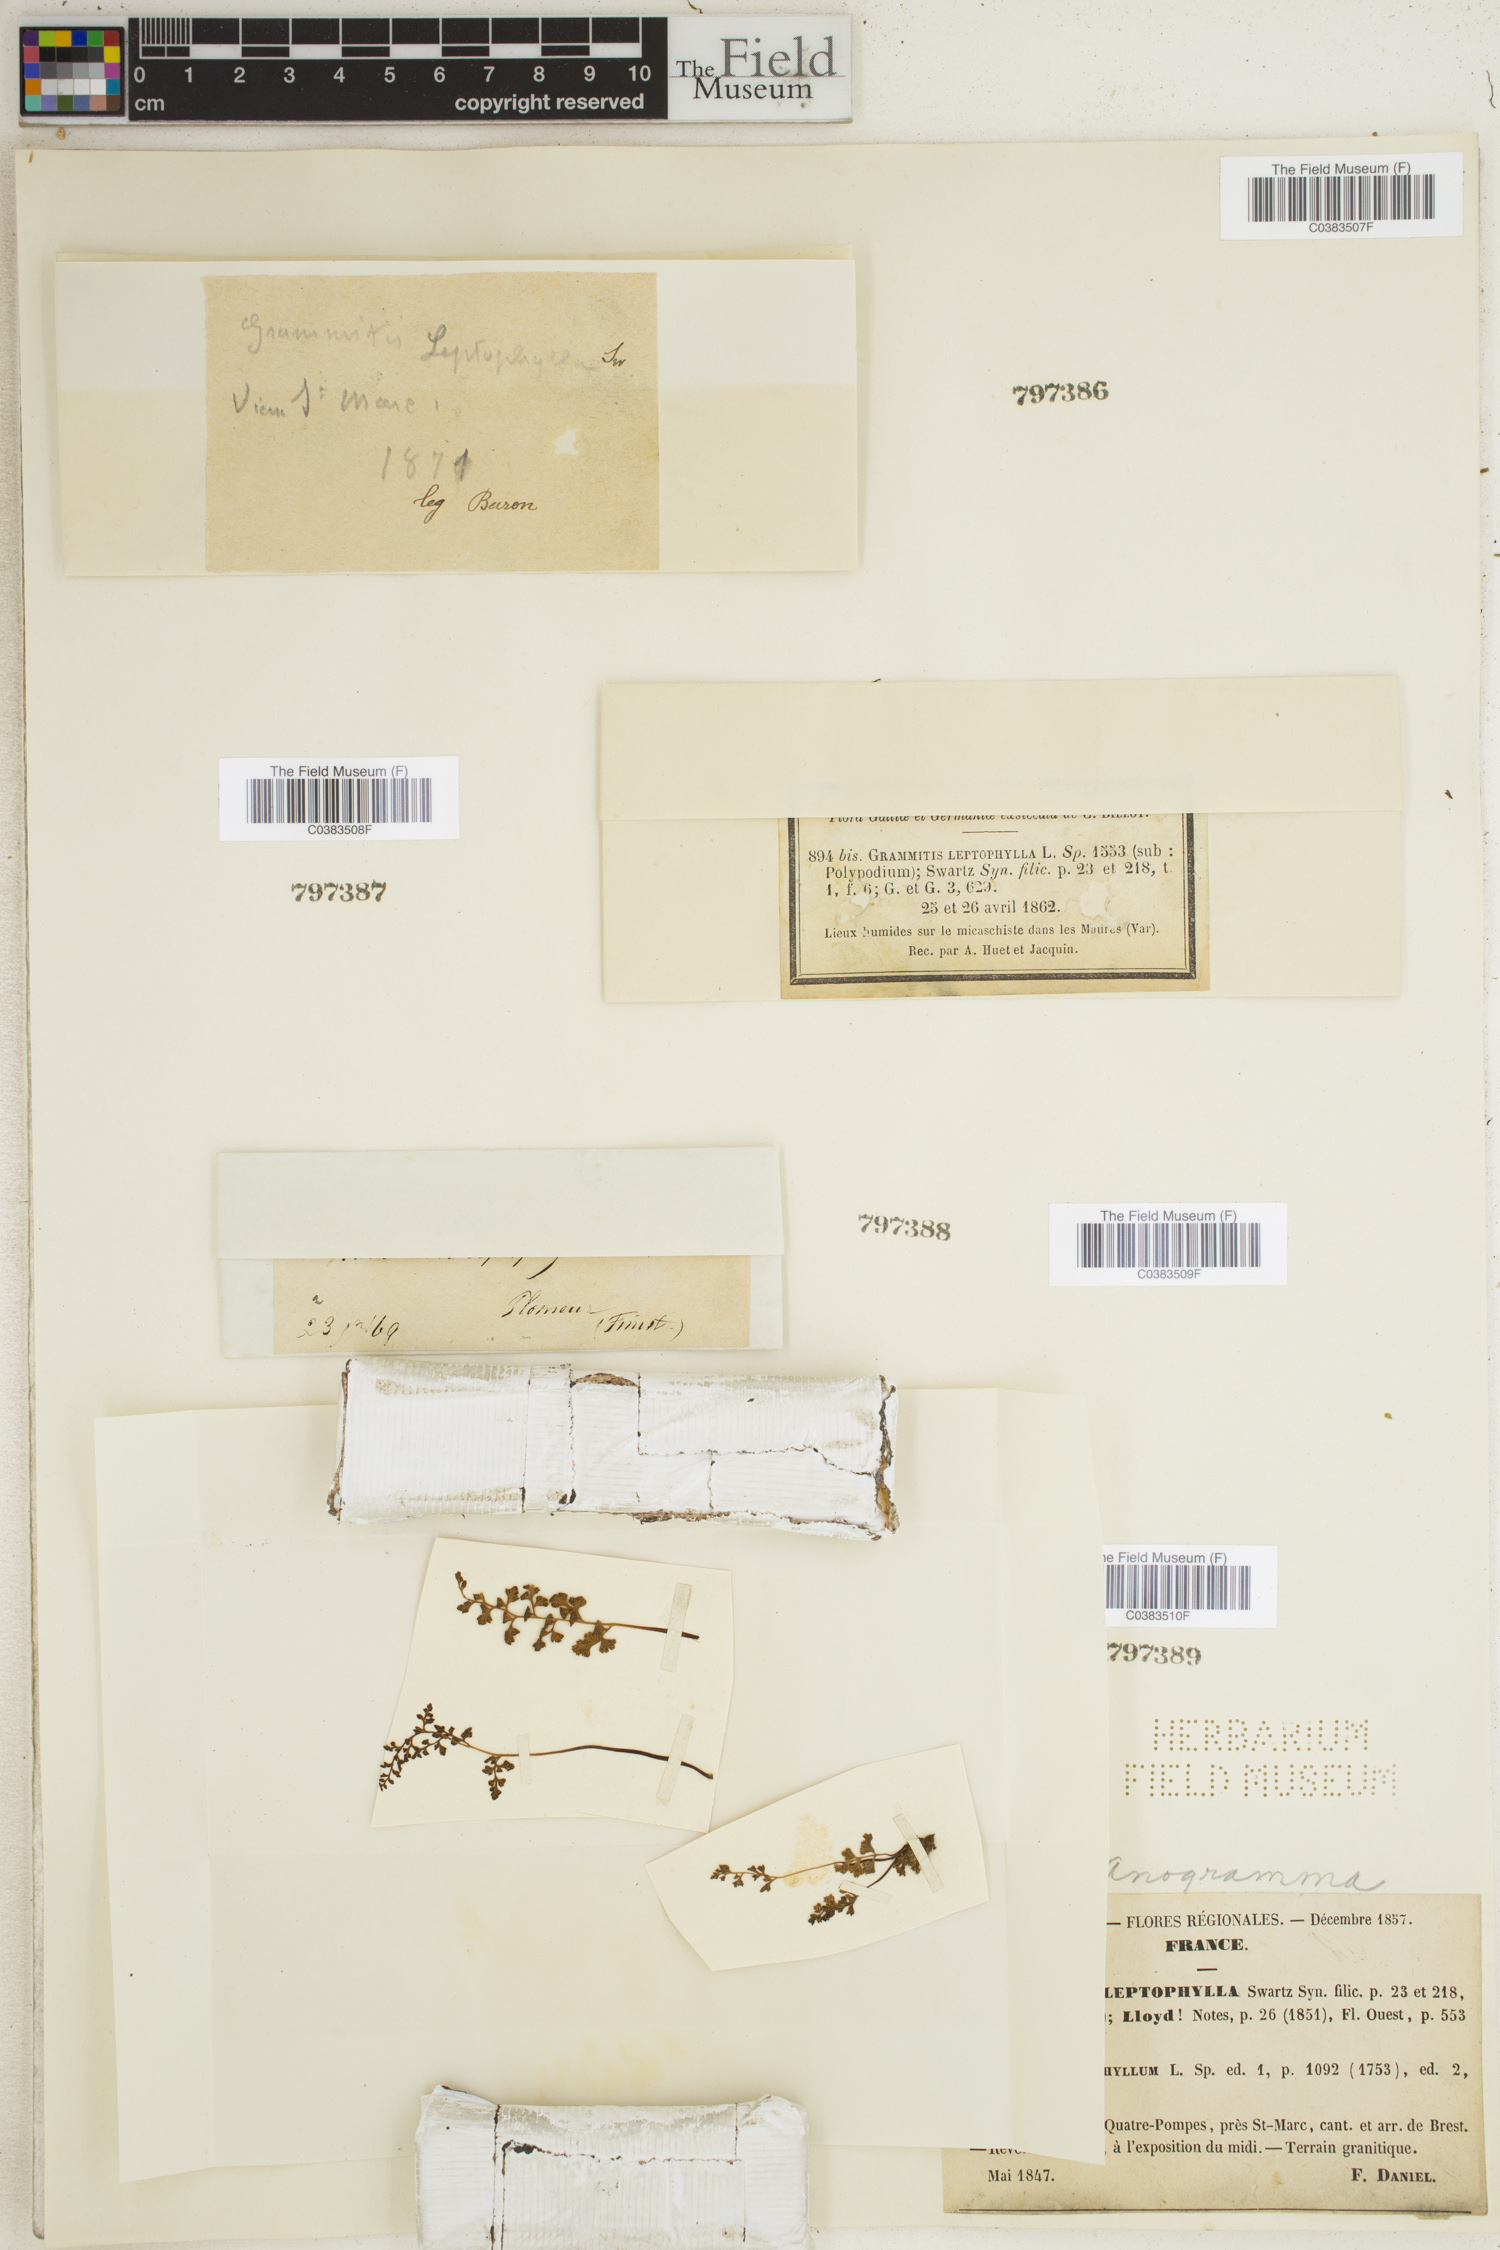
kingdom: Plantae
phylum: Tracheophyta
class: Polypodiopsida
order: Polypodiales
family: Pteridaceae
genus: Anogramma
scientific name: Anogramma leptophylla
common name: Jersey fern
